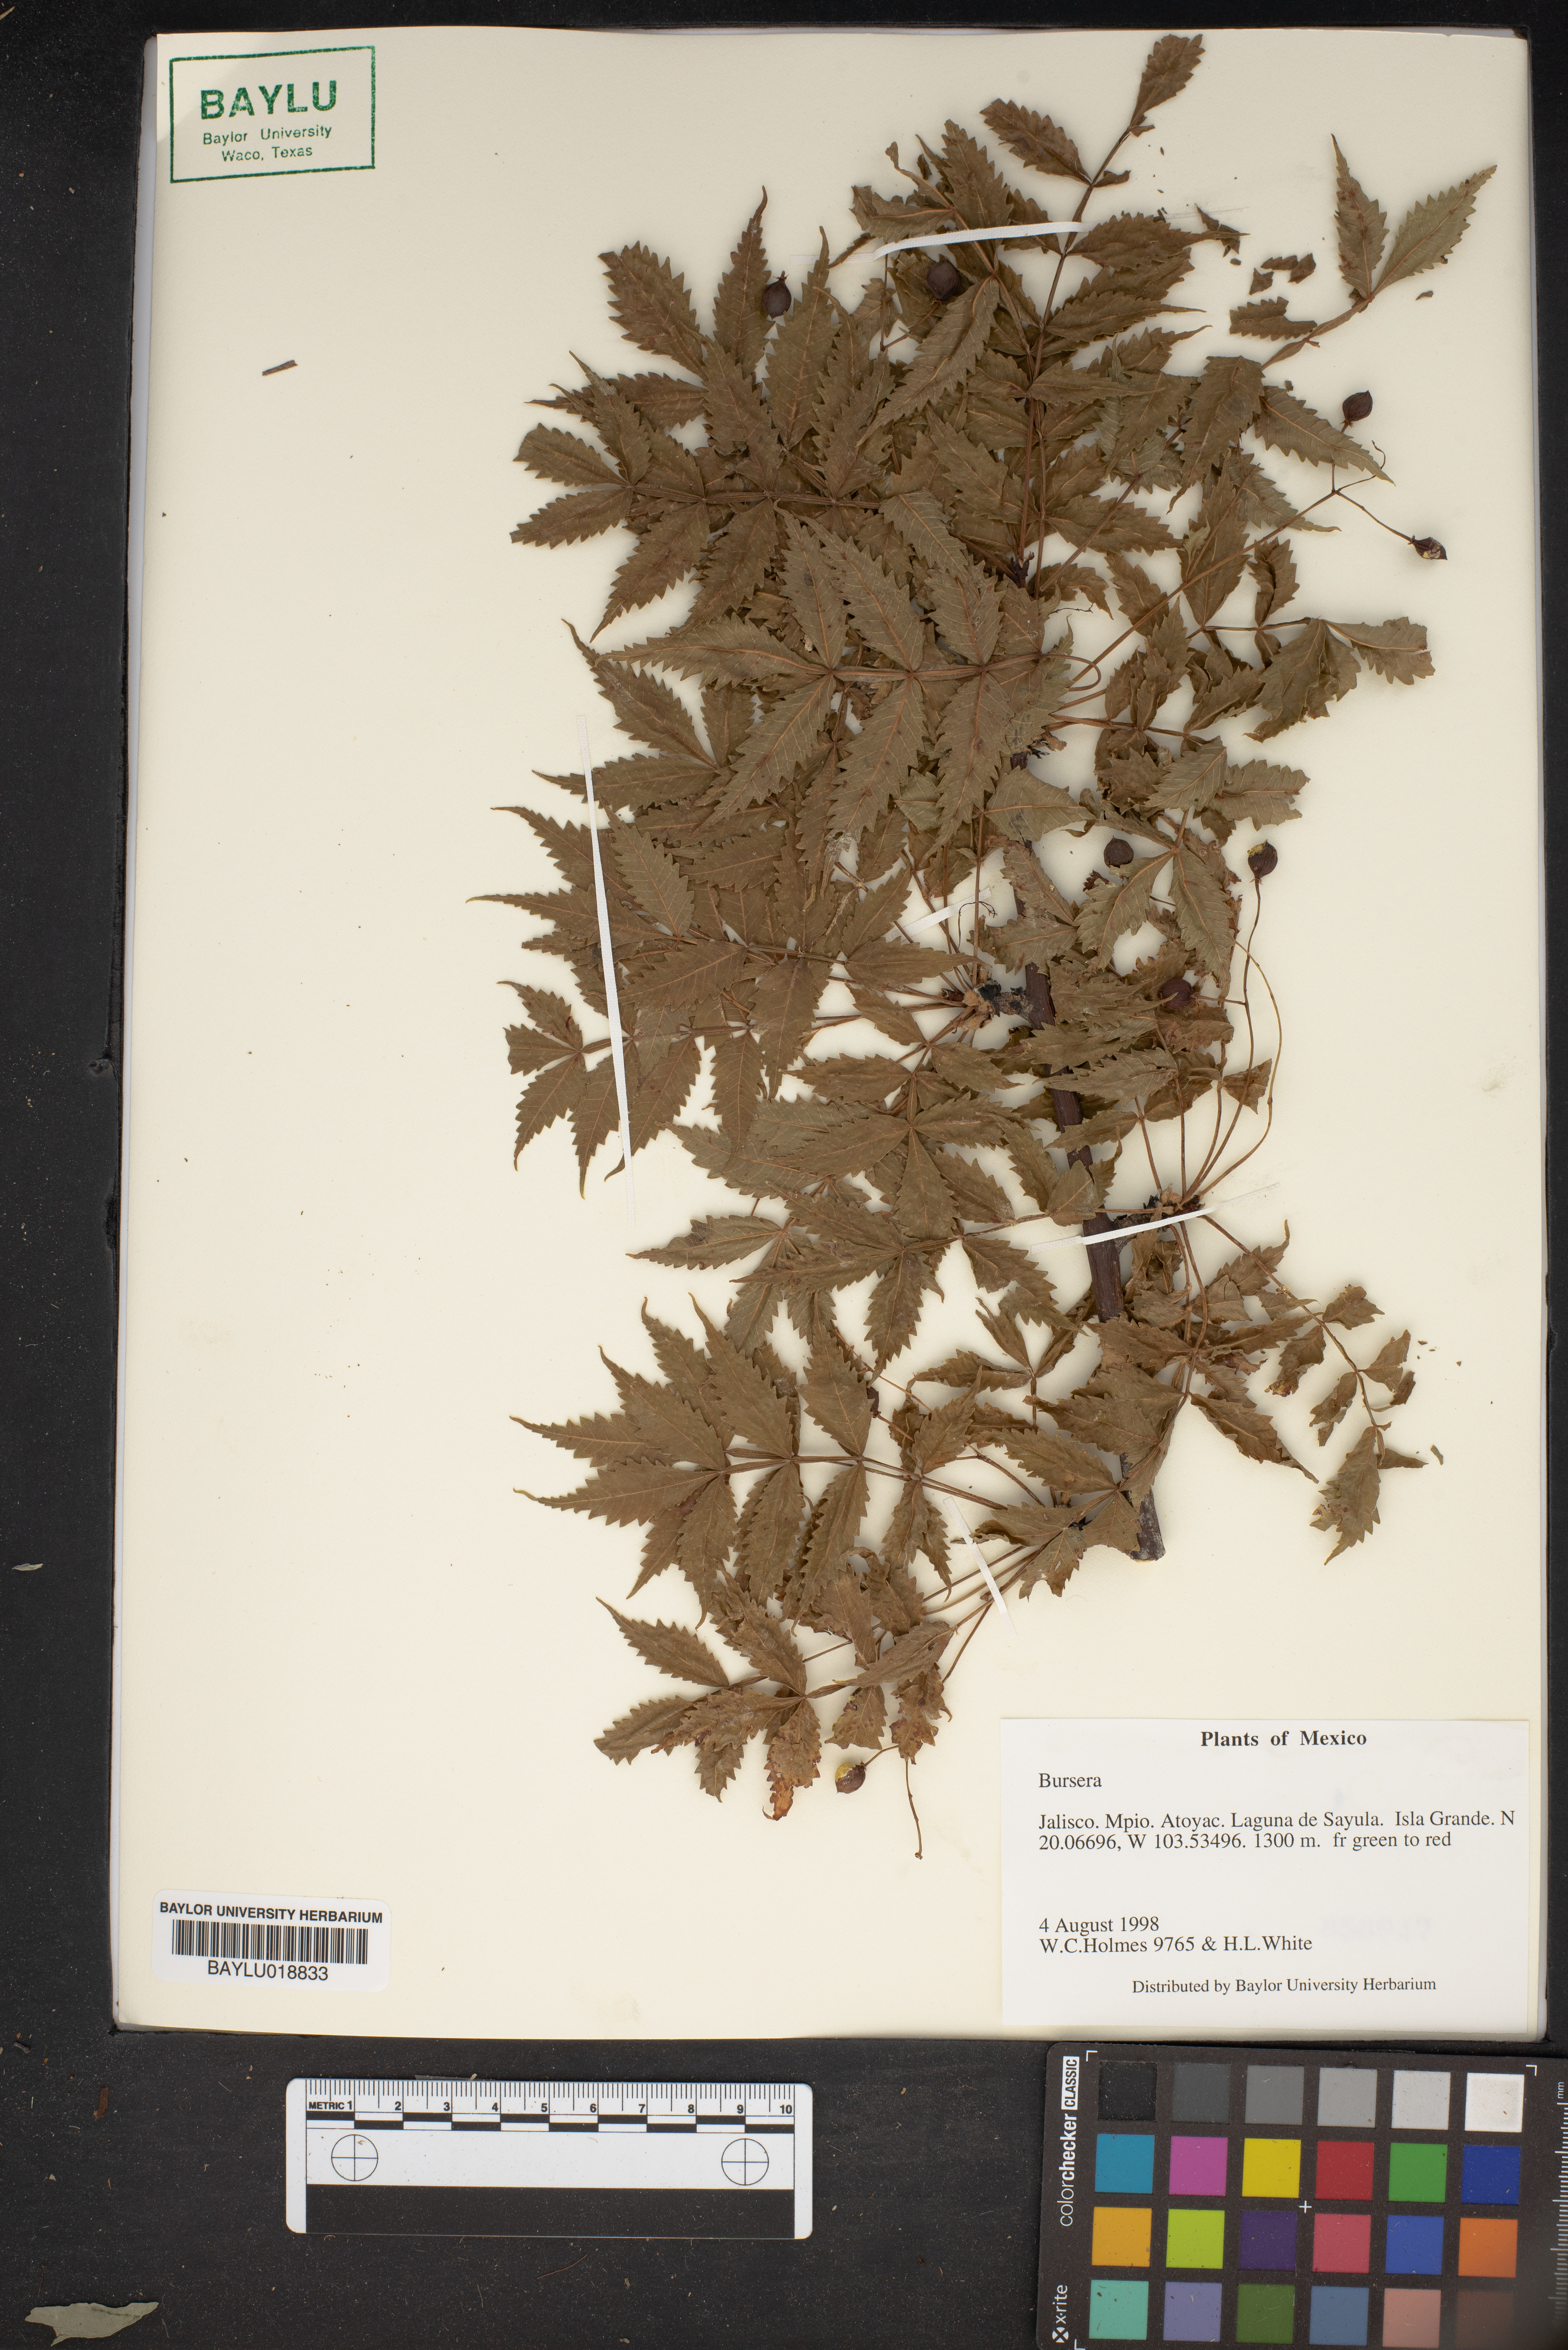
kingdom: Plantae
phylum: Tracheophyta
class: Magnoliopsida
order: Sapindales
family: Burseraceae
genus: Bursera
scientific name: Bursera
